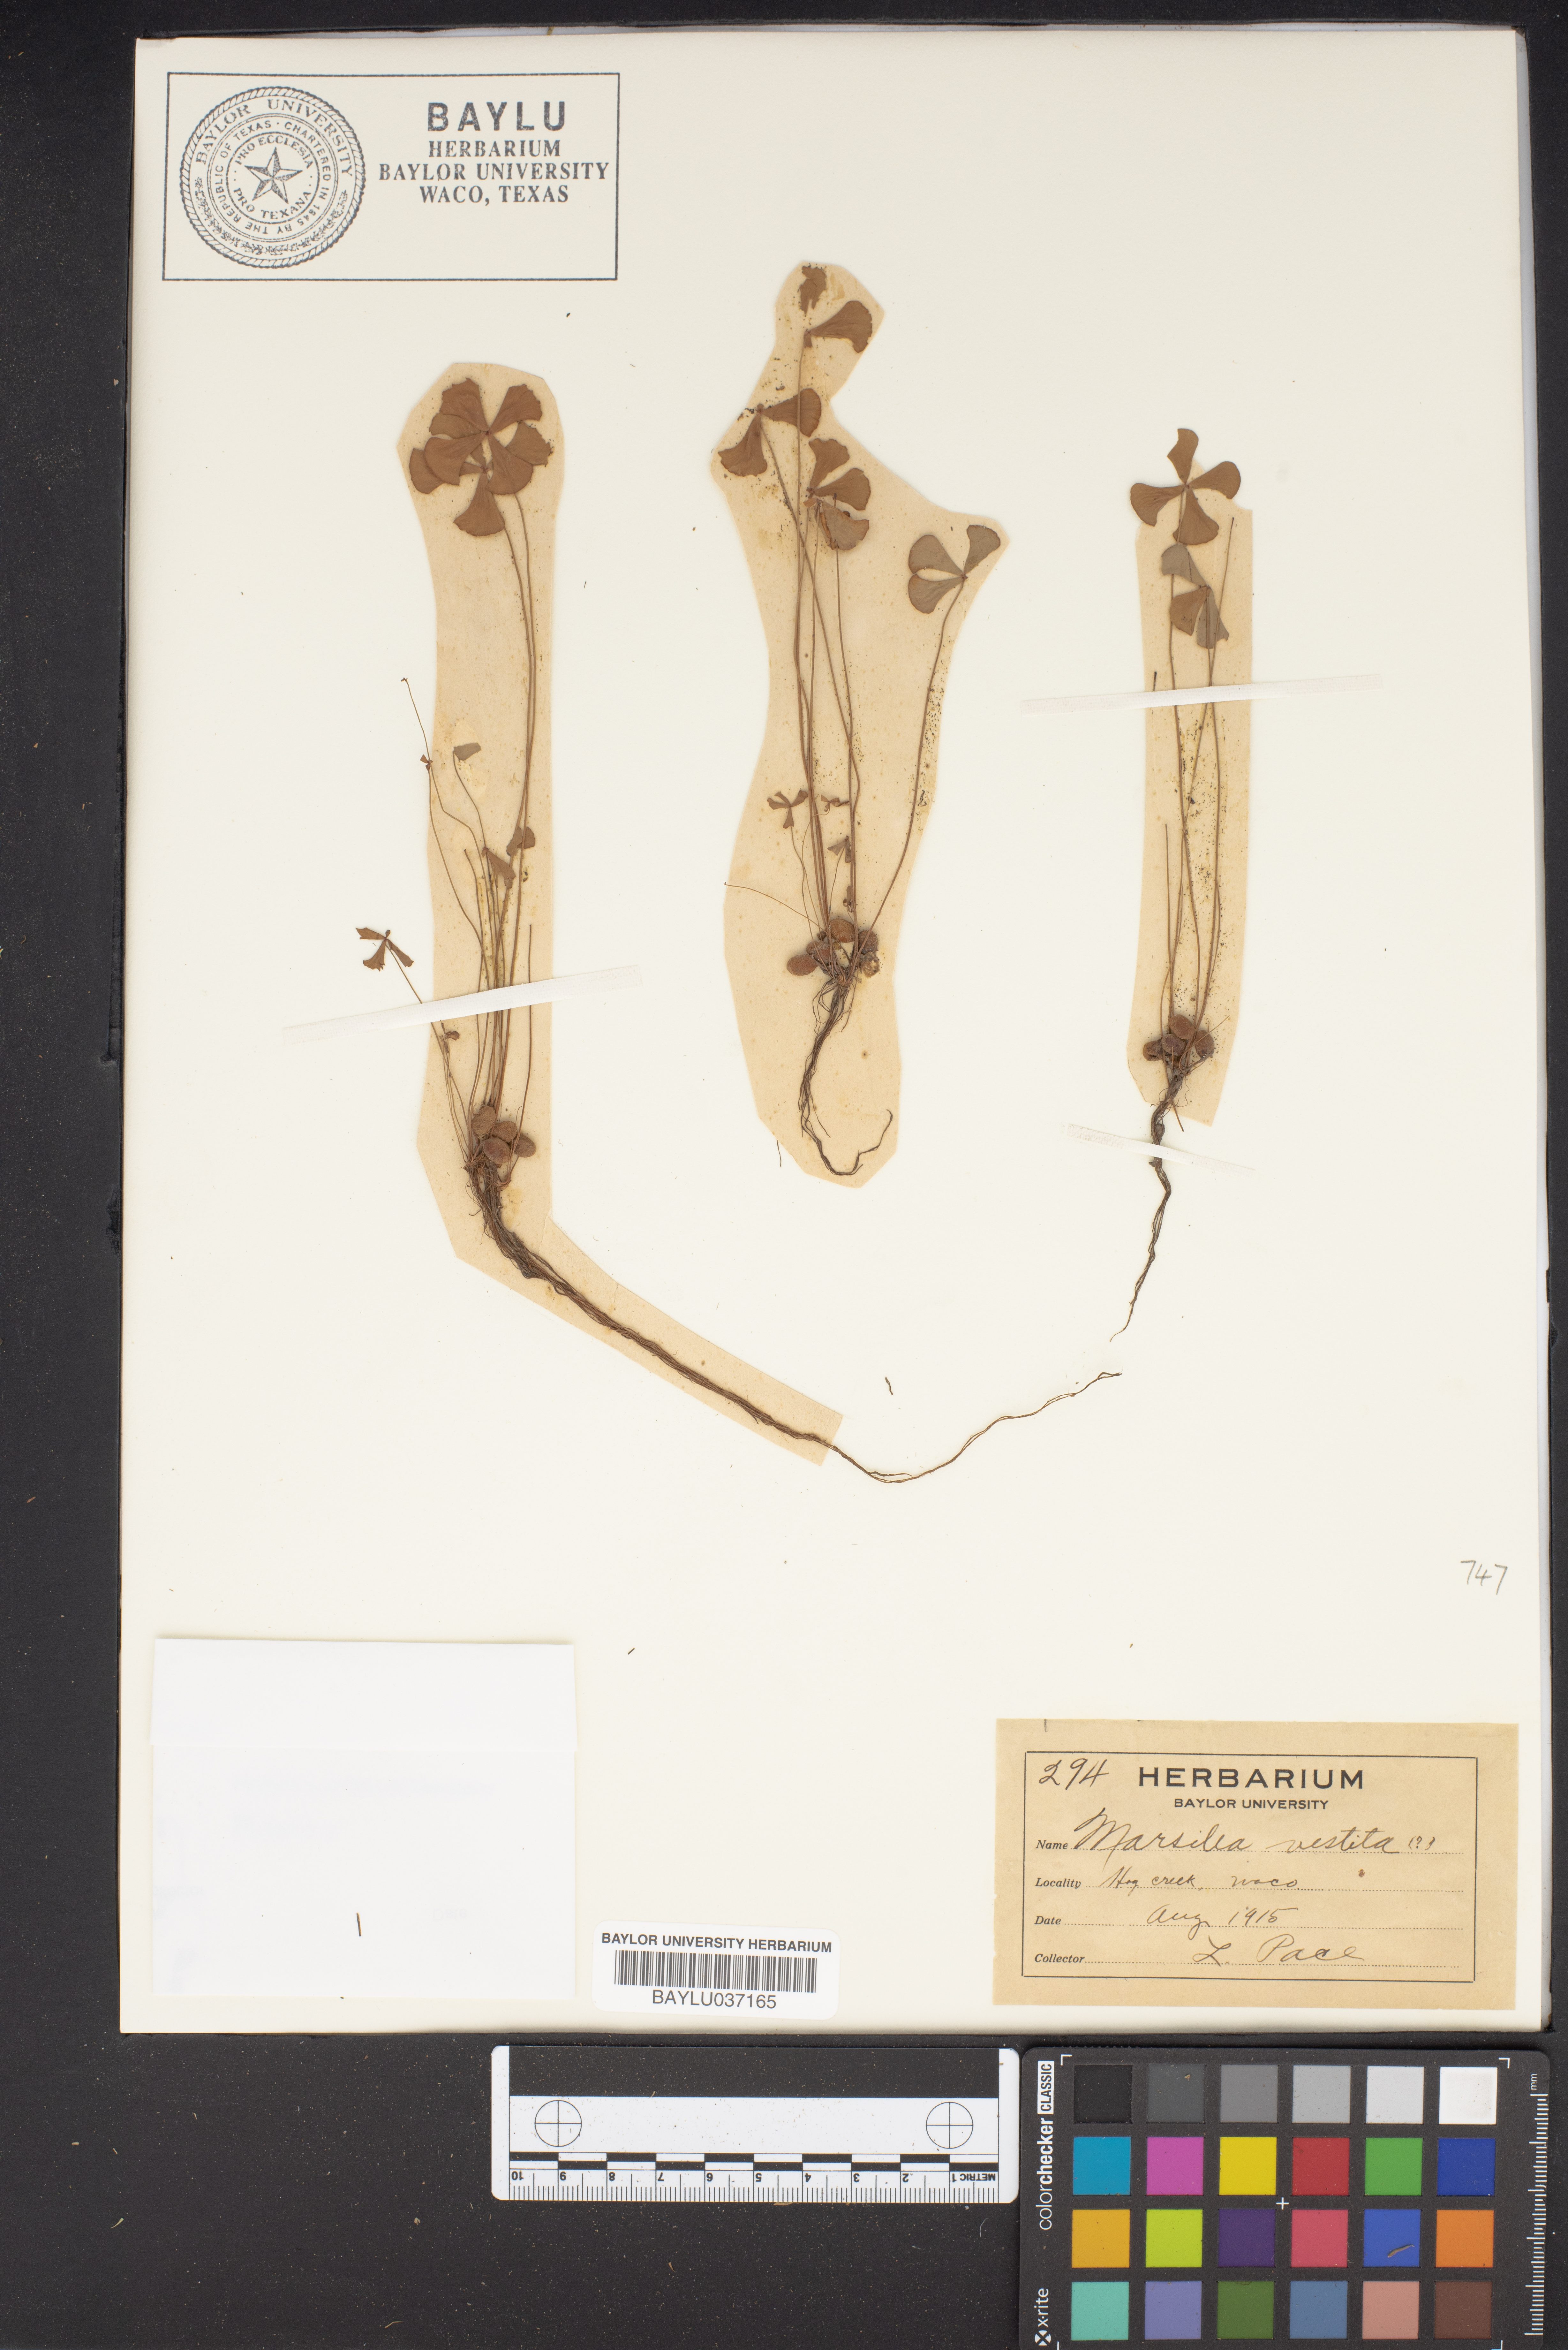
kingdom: Plantae
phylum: Tracheophyta
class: Polypodiopsida
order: Salviniales
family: Marsileaceae
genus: Marsilea
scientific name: Marsilea vestita
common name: Hooked-pepperwort
